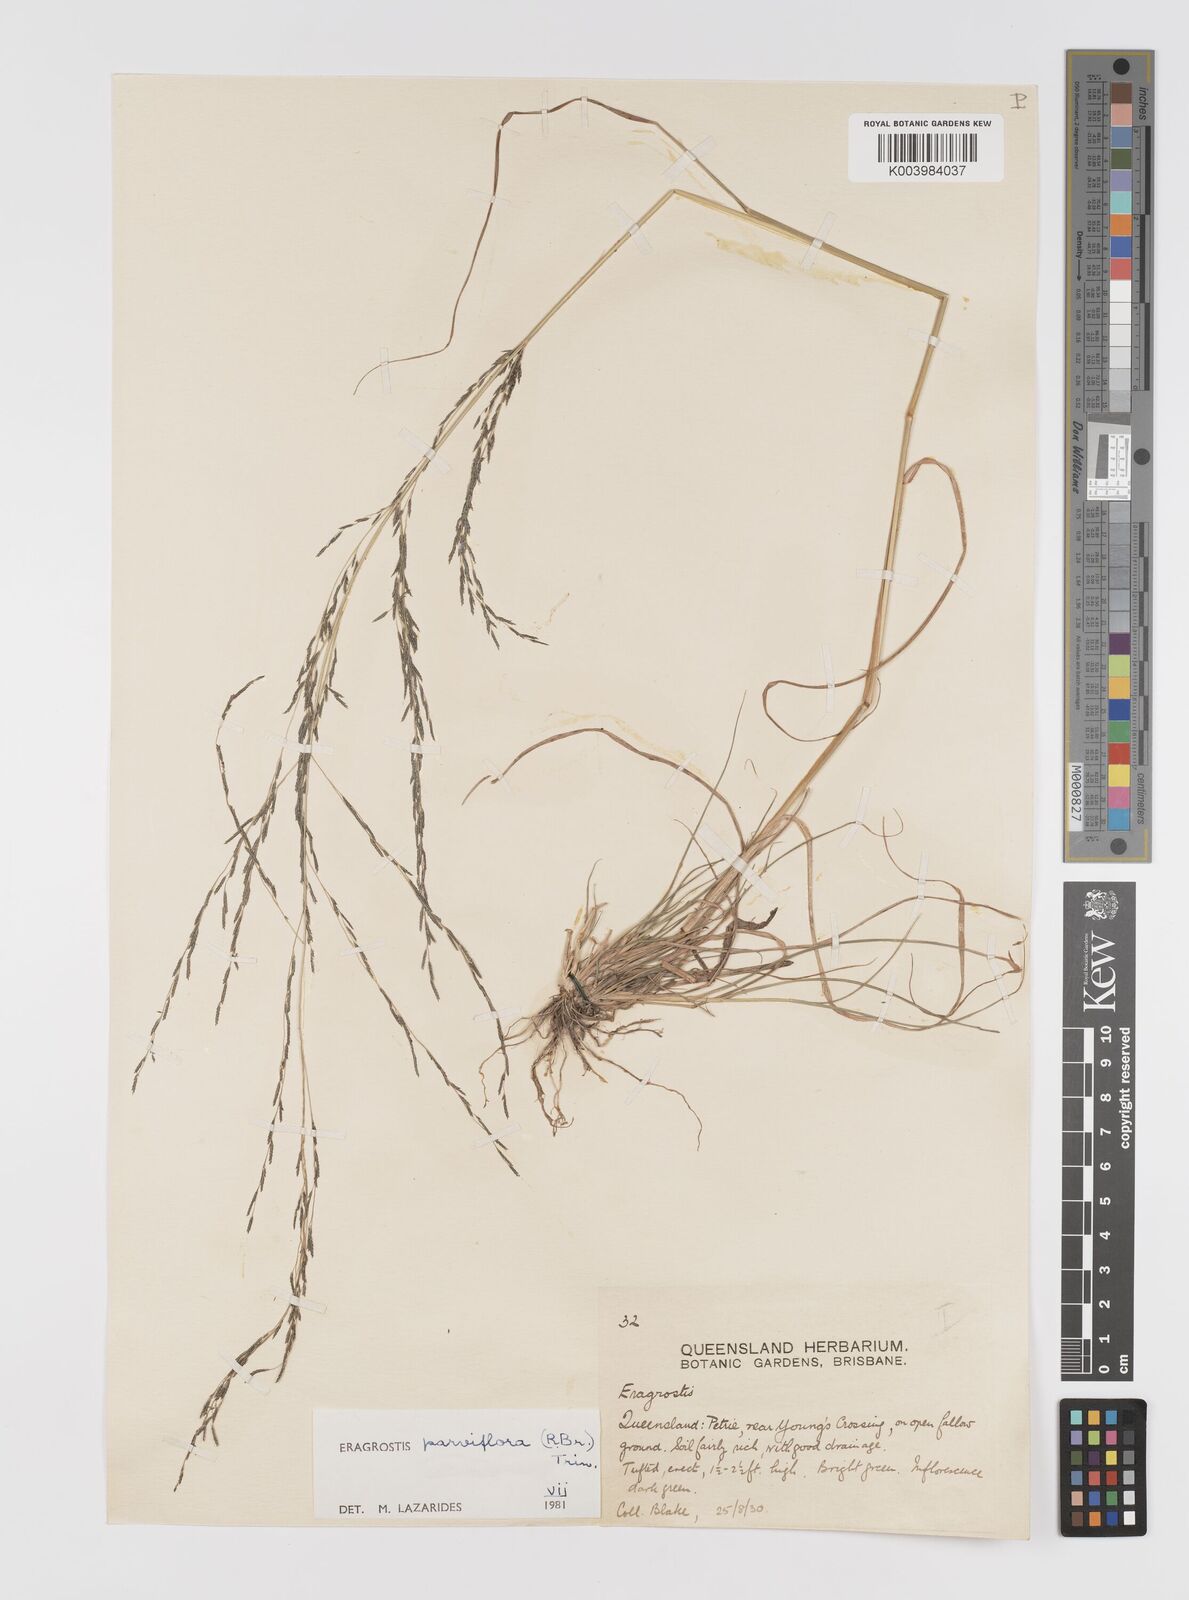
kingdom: Plantae
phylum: Tracheophyta
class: Liliopsida
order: Poales
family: Poaceae
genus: Eragrostis
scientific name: Eragrostis parviflora
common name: Weeping love-grass
